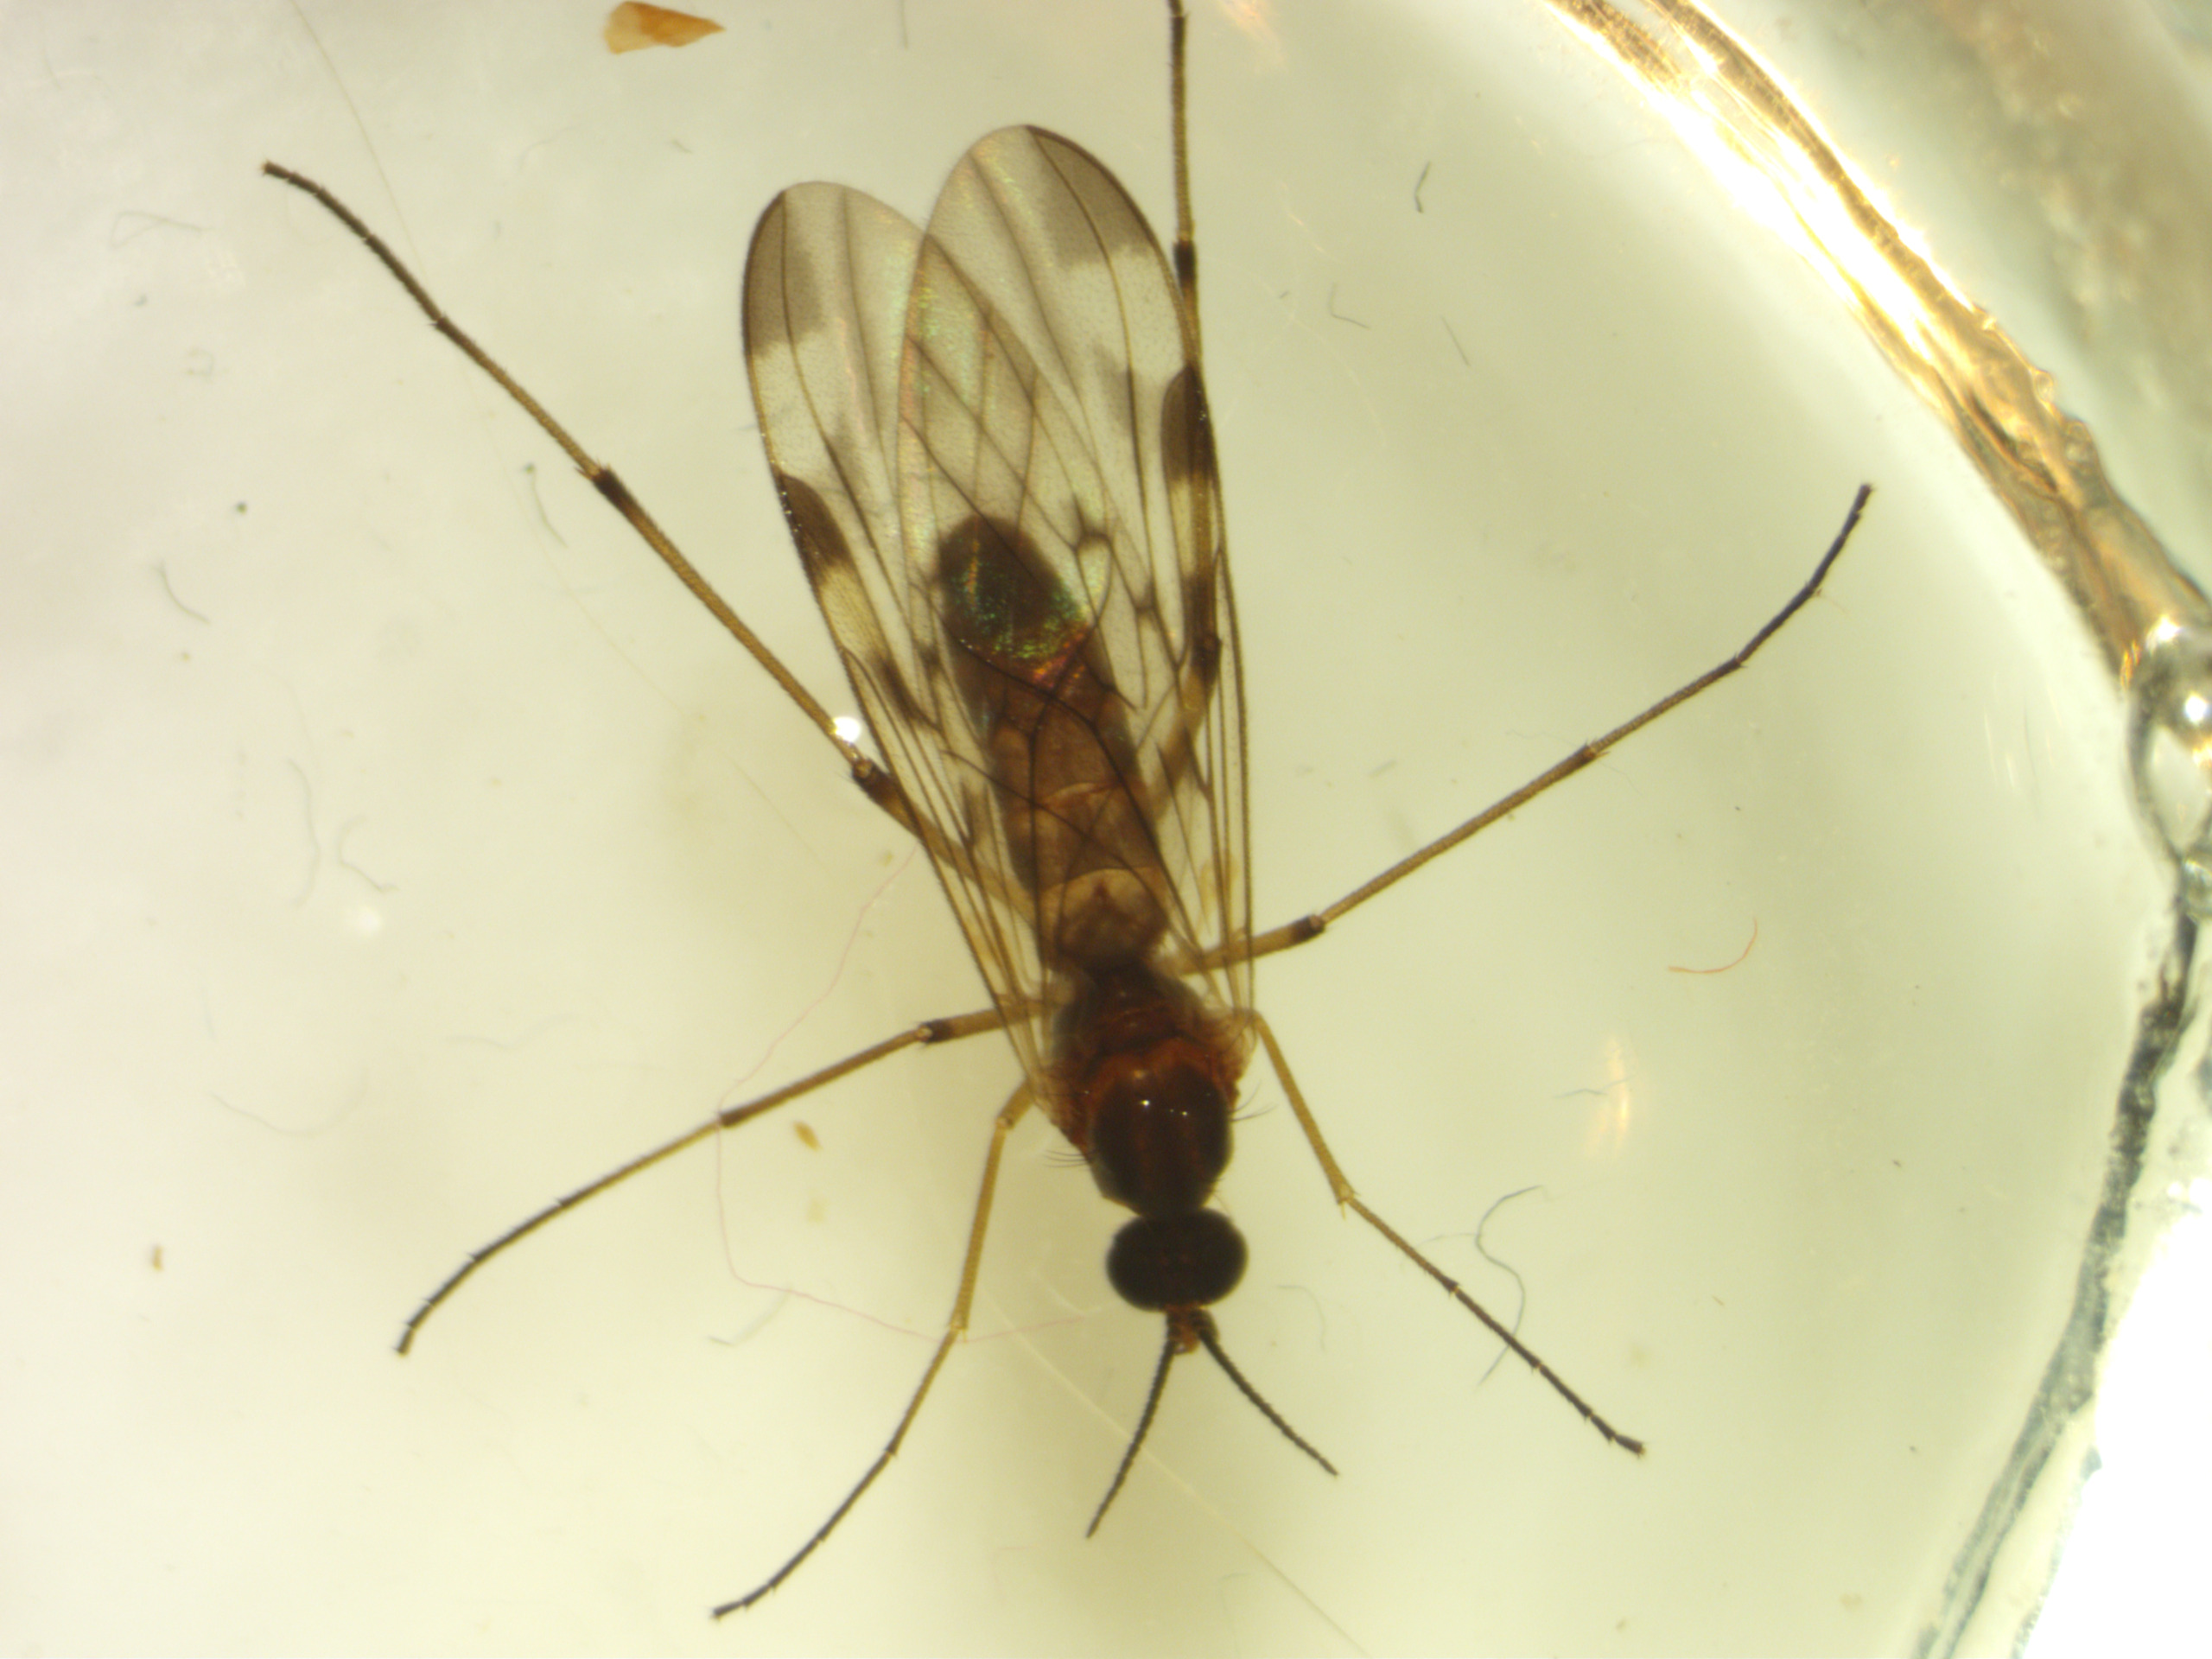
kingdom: Animalia
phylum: Arthropoda
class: Insecta
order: Diptera
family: Anisopodidae
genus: Sylvicola
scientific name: Sylvicola cinctus
